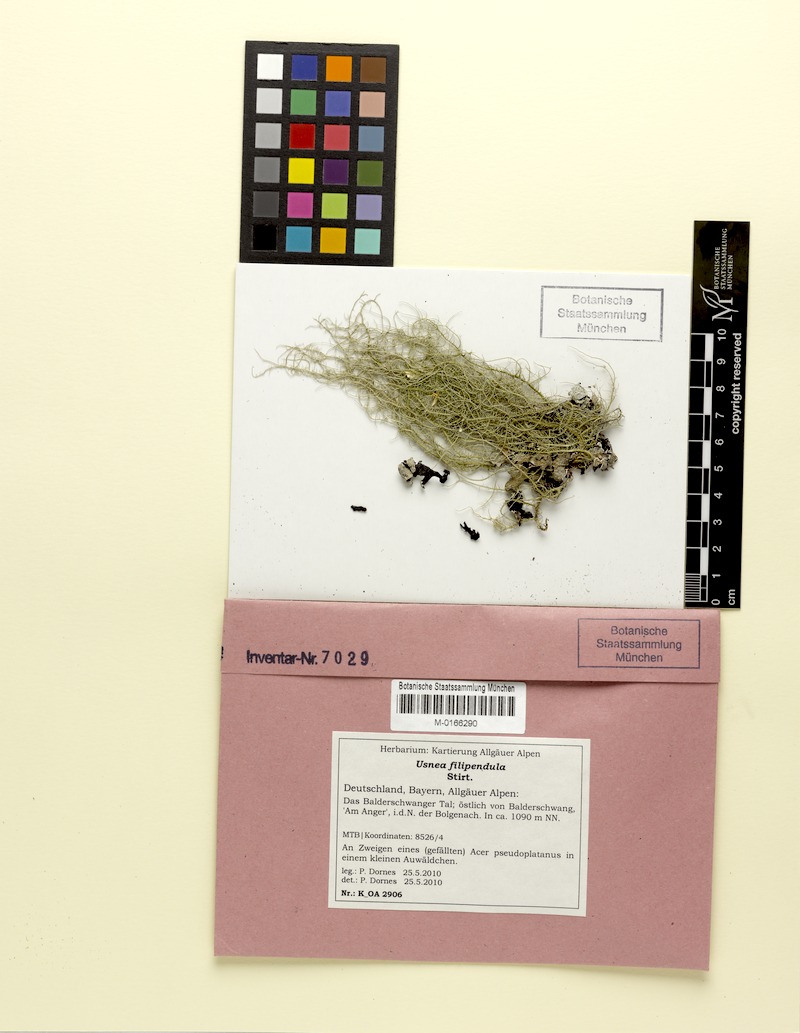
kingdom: Fungi
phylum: Ascomycota
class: Lecanoromycetes
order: Lecanorales
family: Parmeliaceae
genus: Usnea
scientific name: Usnea filipendula
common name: Fishbone beard lichen
